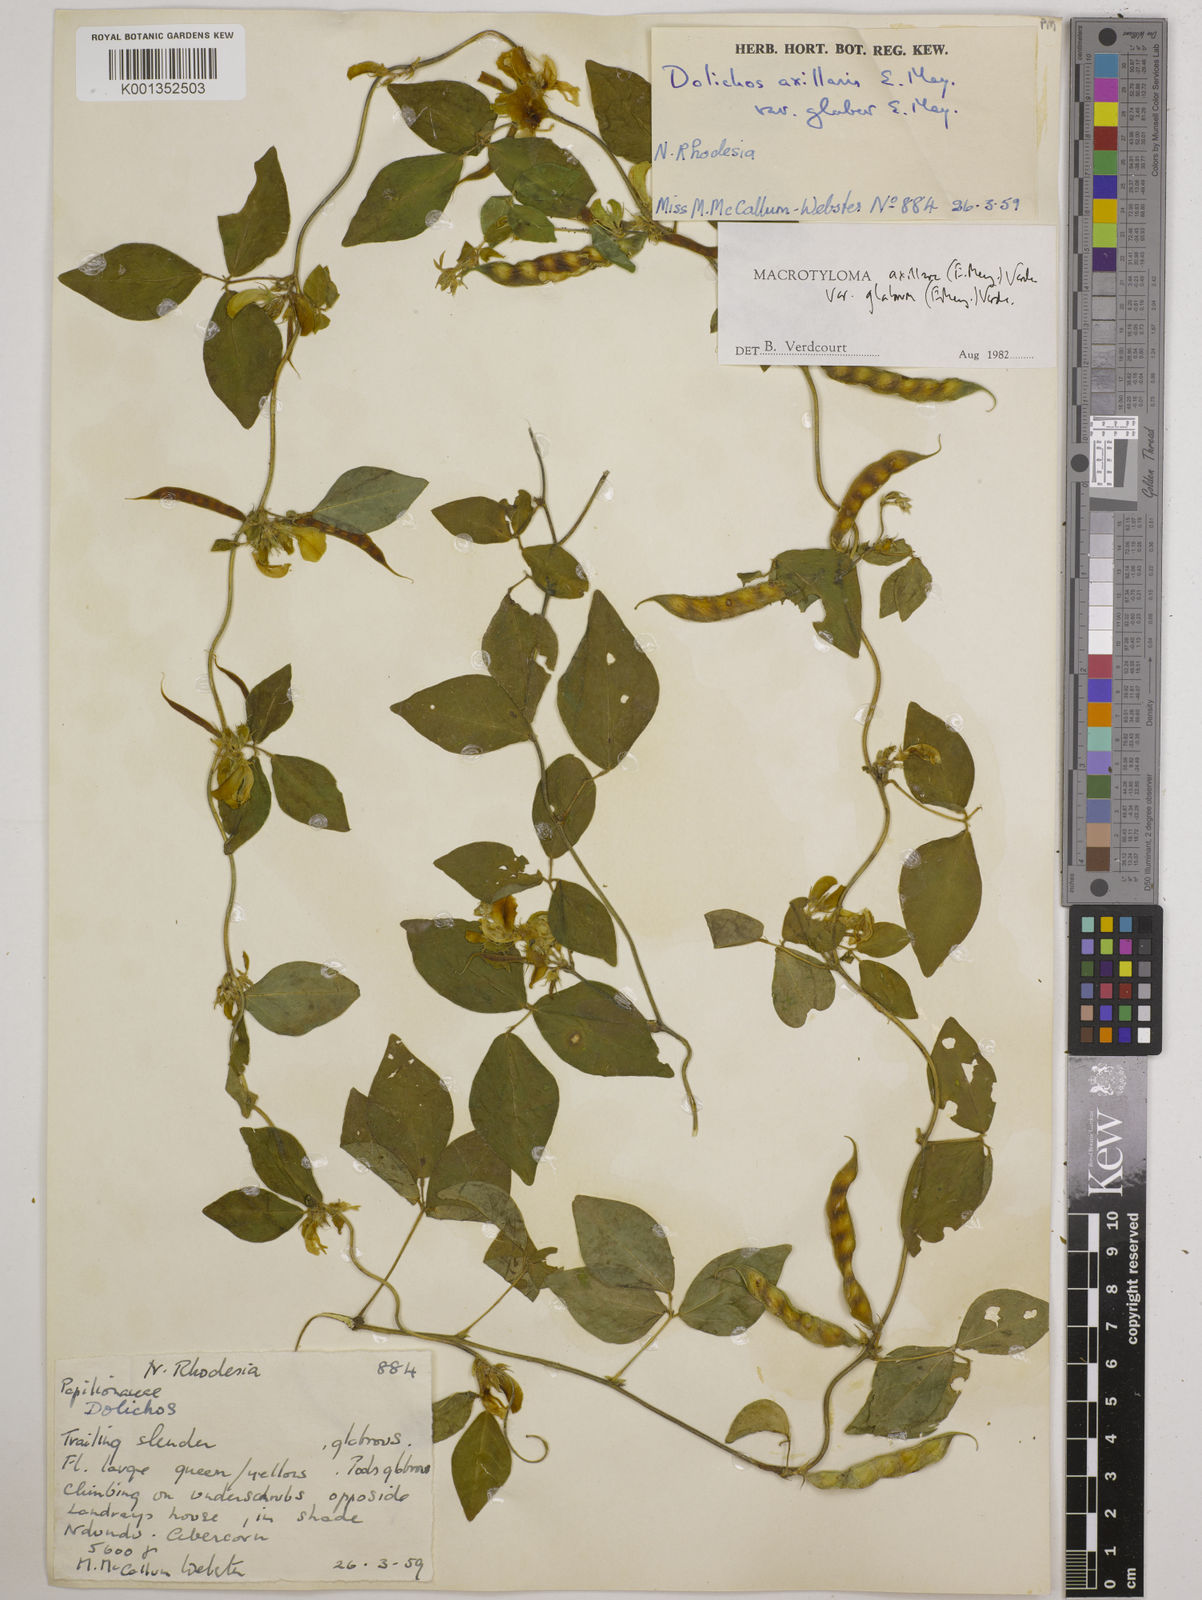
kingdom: Plantae
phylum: Tracheophyta
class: Magnoliopsida
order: Fabales
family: Fabaceae
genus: Macrotyloma
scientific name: Macrotyloma
